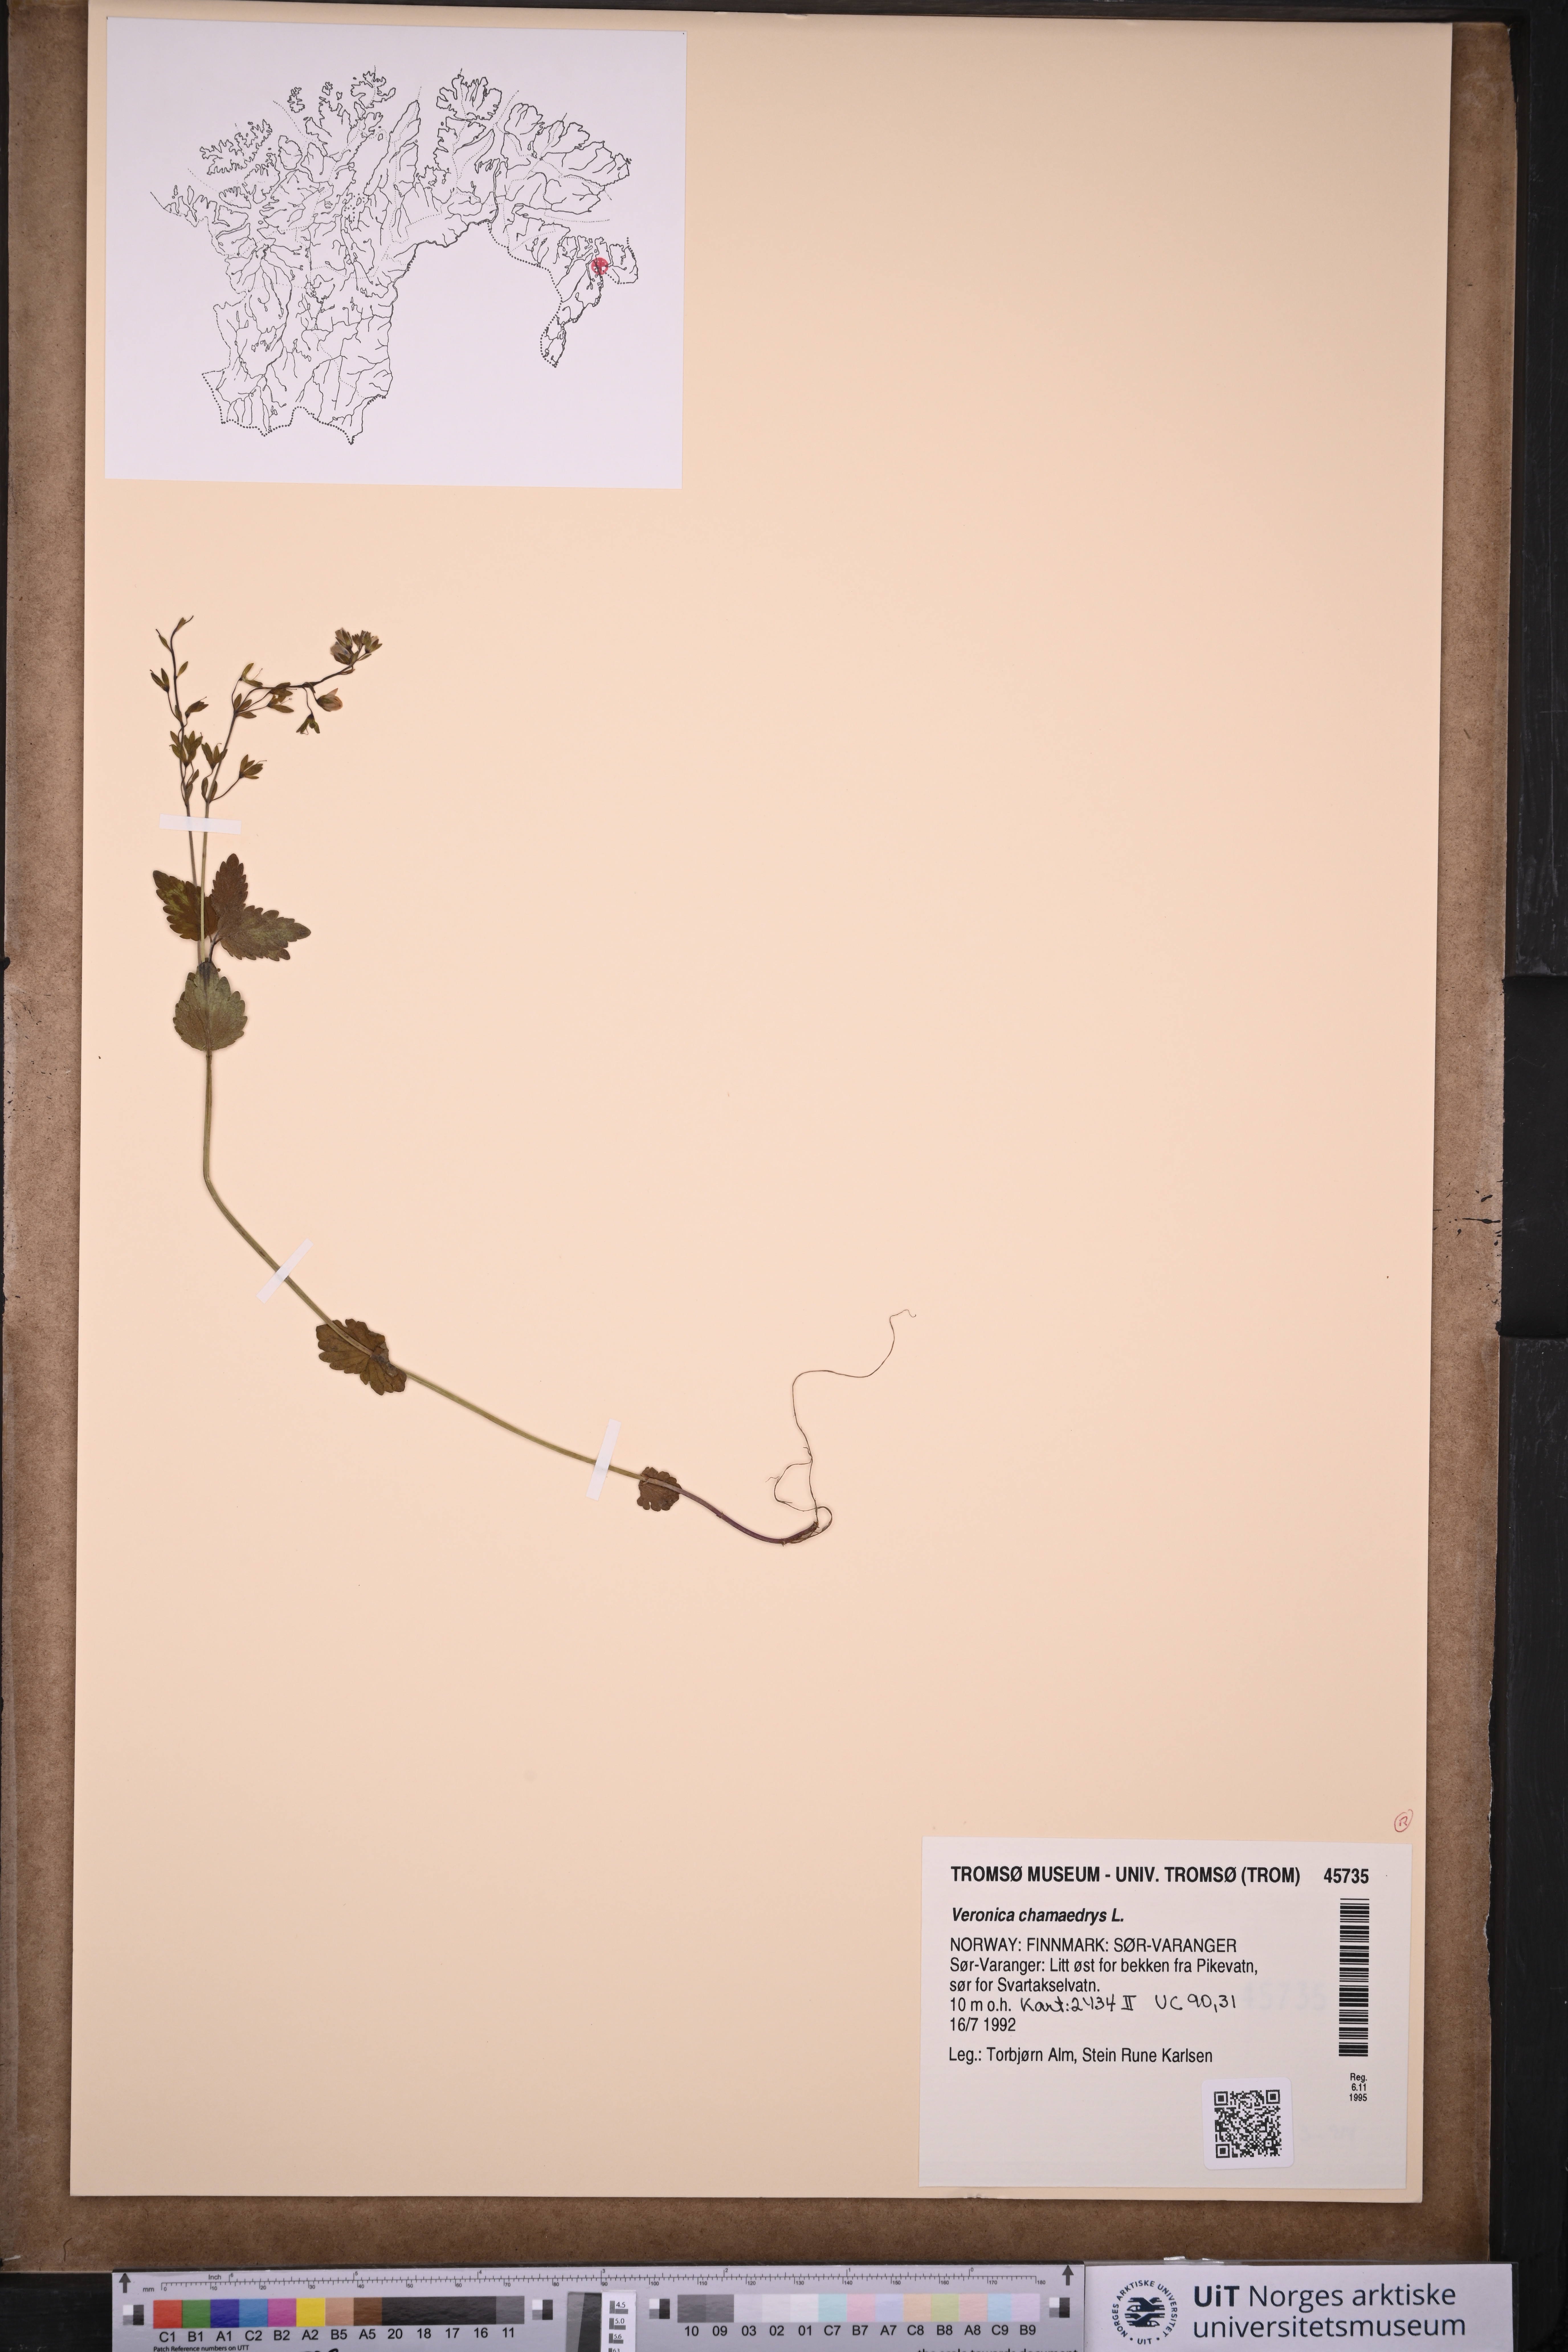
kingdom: Plantae
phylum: Tracheophyta
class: Magnoliopsida
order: Lamiales
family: Plantaginaceae
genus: Veronica
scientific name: Veronica chamaedrys
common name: Germander speedwell
